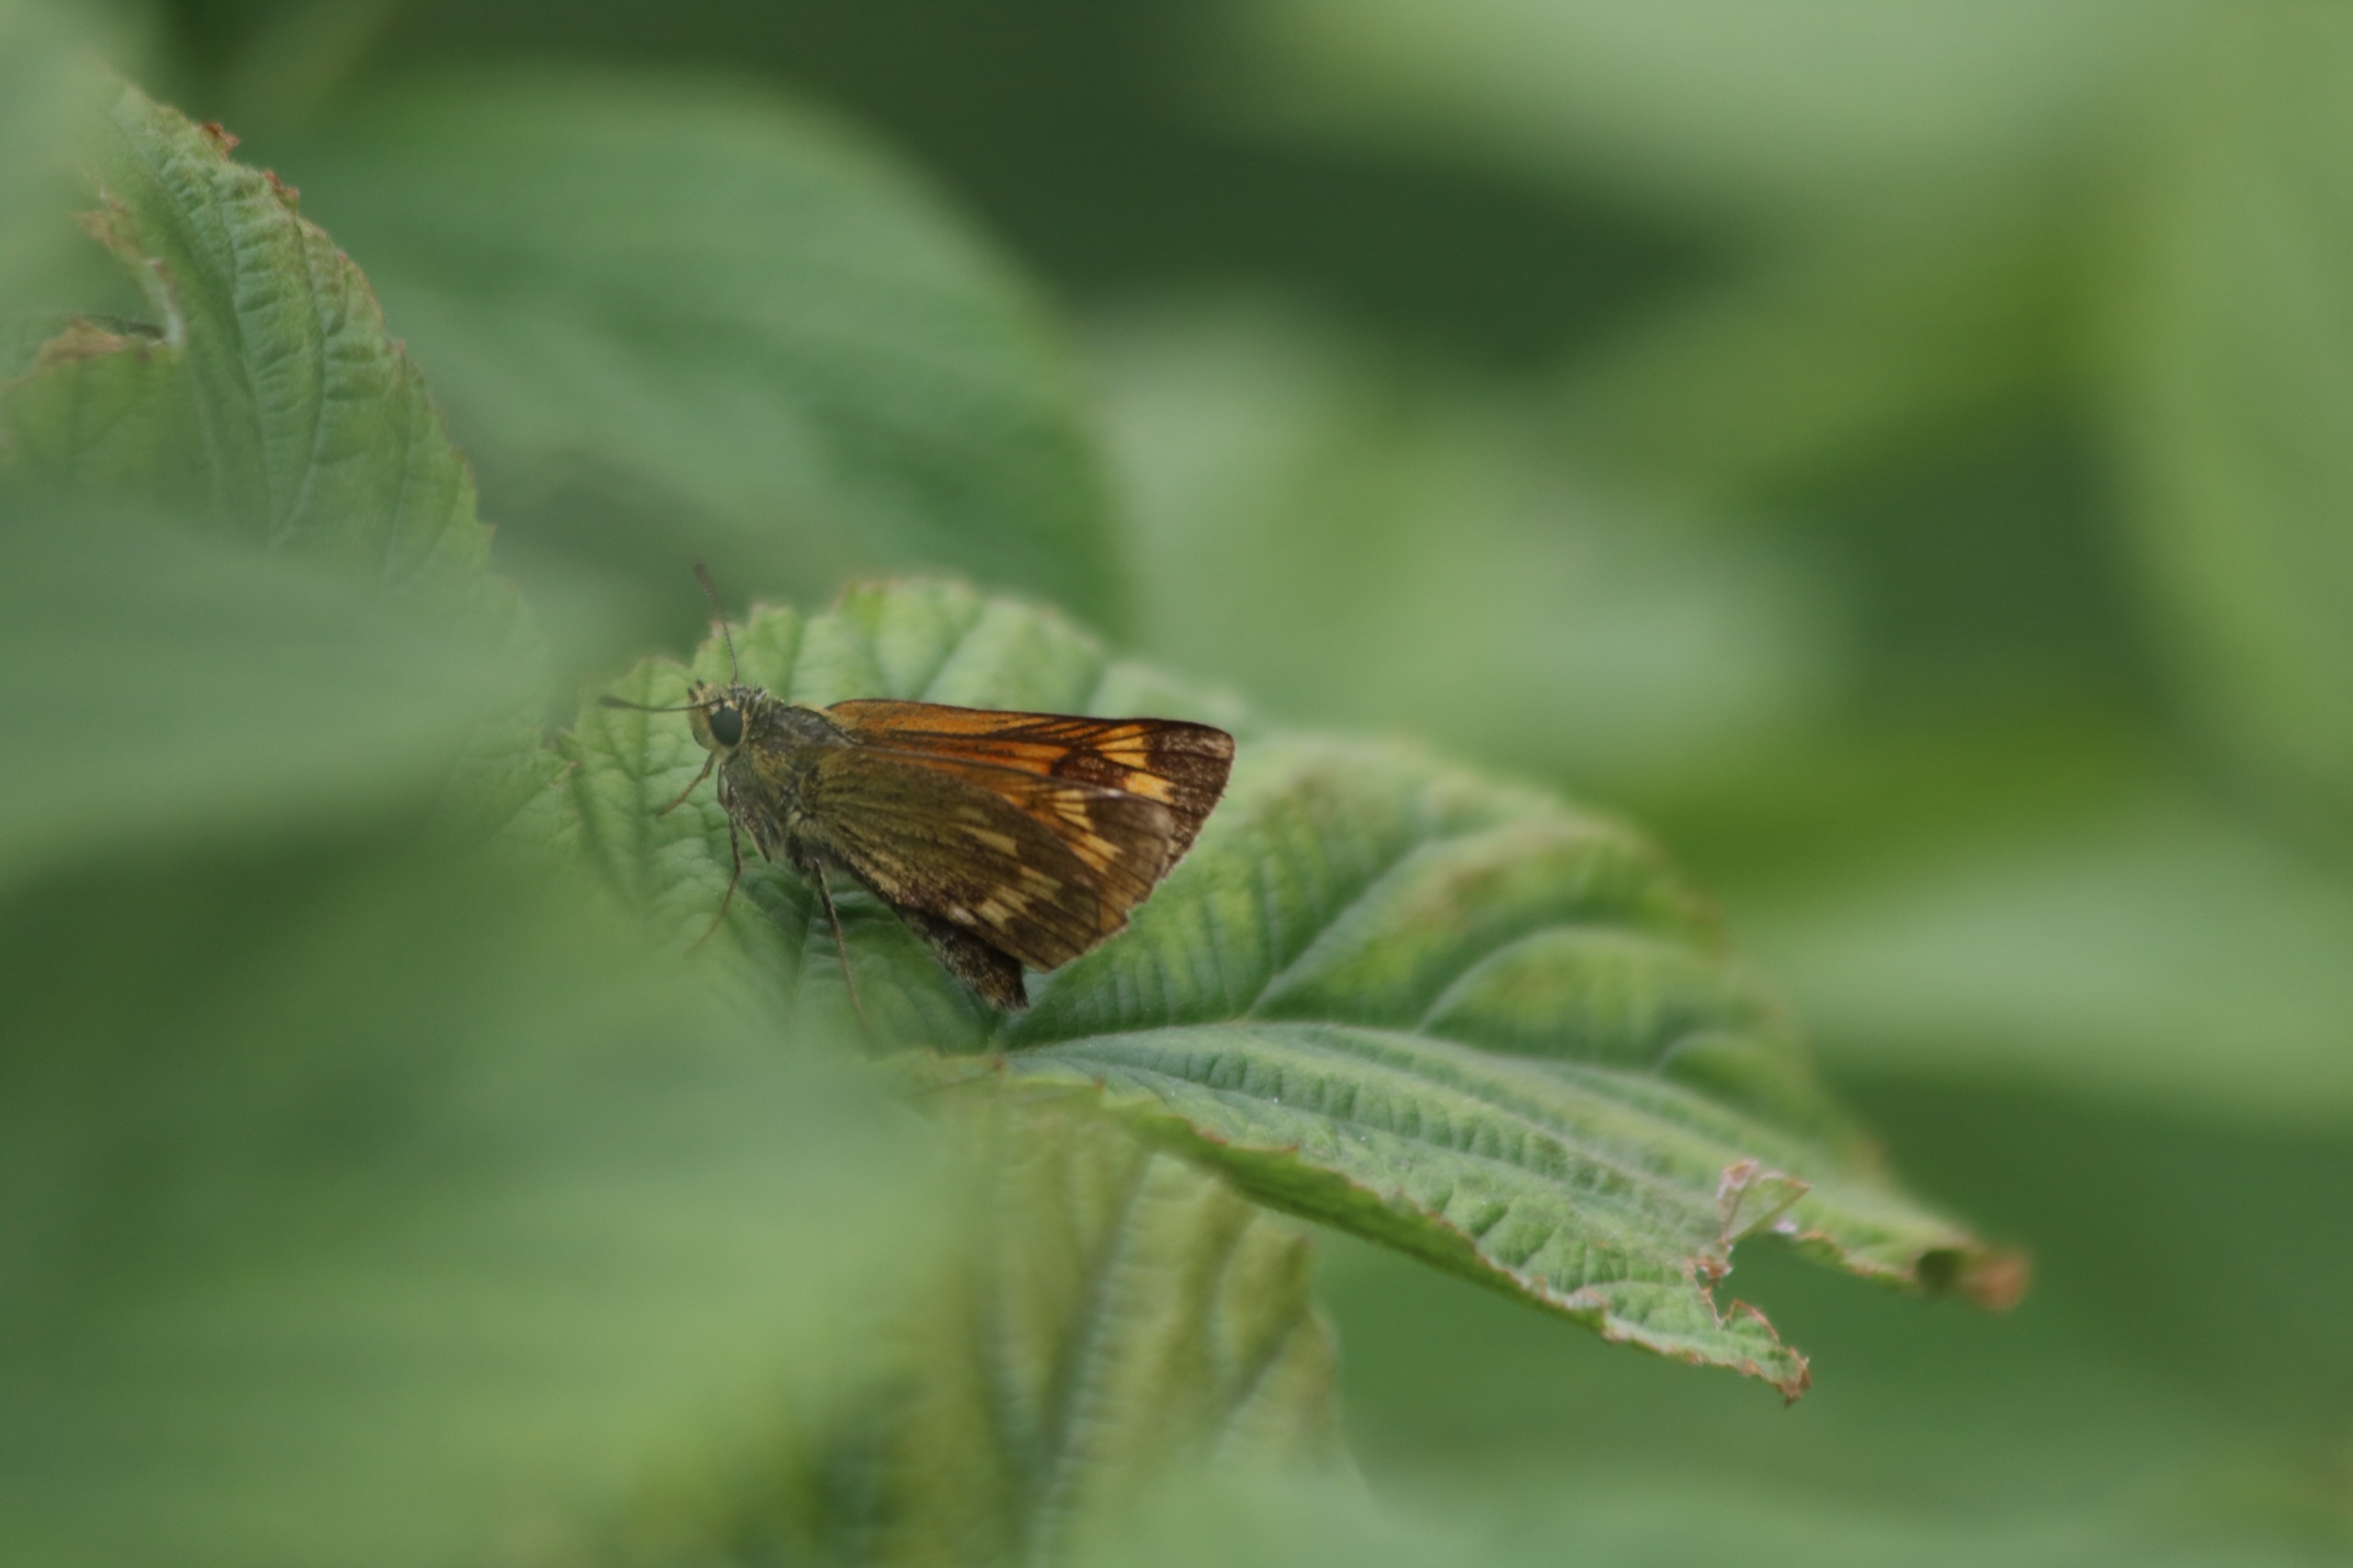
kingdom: Animalia
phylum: Arthropoda
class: Insecta
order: Lepidoptera
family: Hesperiidae
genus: Ochlodes
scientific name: Ochlodes venata
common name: Stor bredpande
